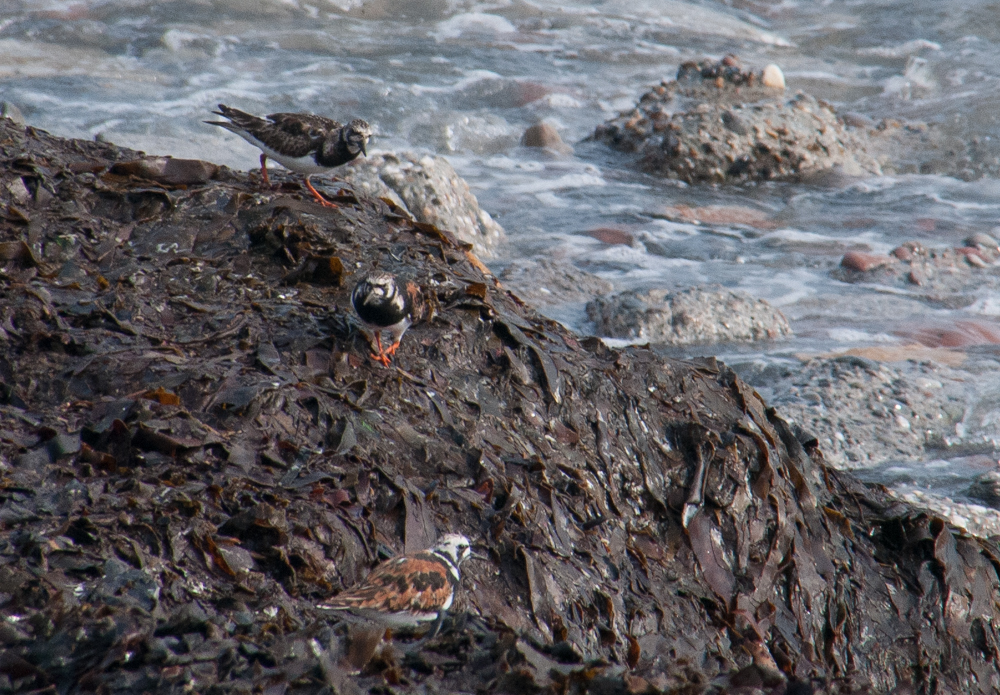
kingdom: Animalia
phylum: Chordata
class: Aves
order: Charadriiformes
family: Scolopacidae
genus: Arenaria
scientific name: Arenaria interpres
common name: Ruddy turnstone
